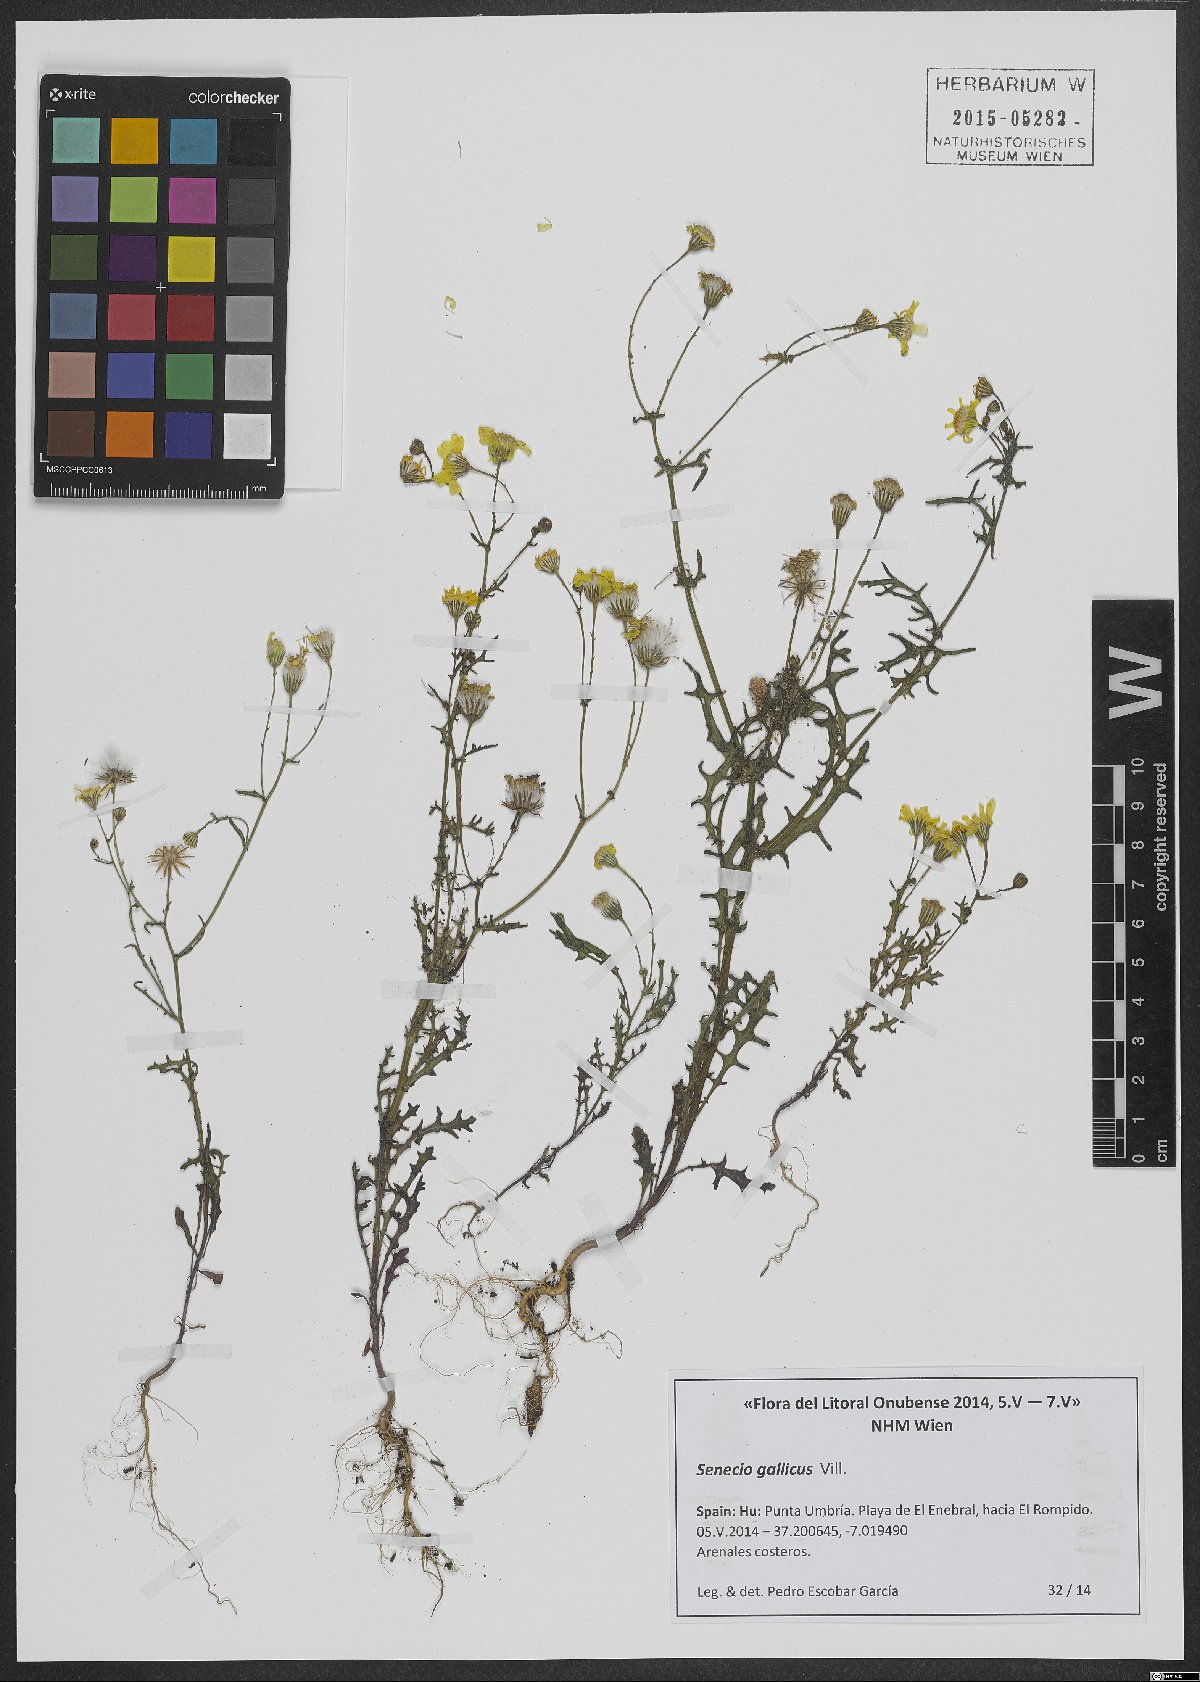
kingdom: Plantae
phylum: Tracheophyta
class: Magnoliopsida
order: Asterales
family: Asteraceae
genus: Senecio
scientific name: Senecio gallicus
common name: French groundsel
